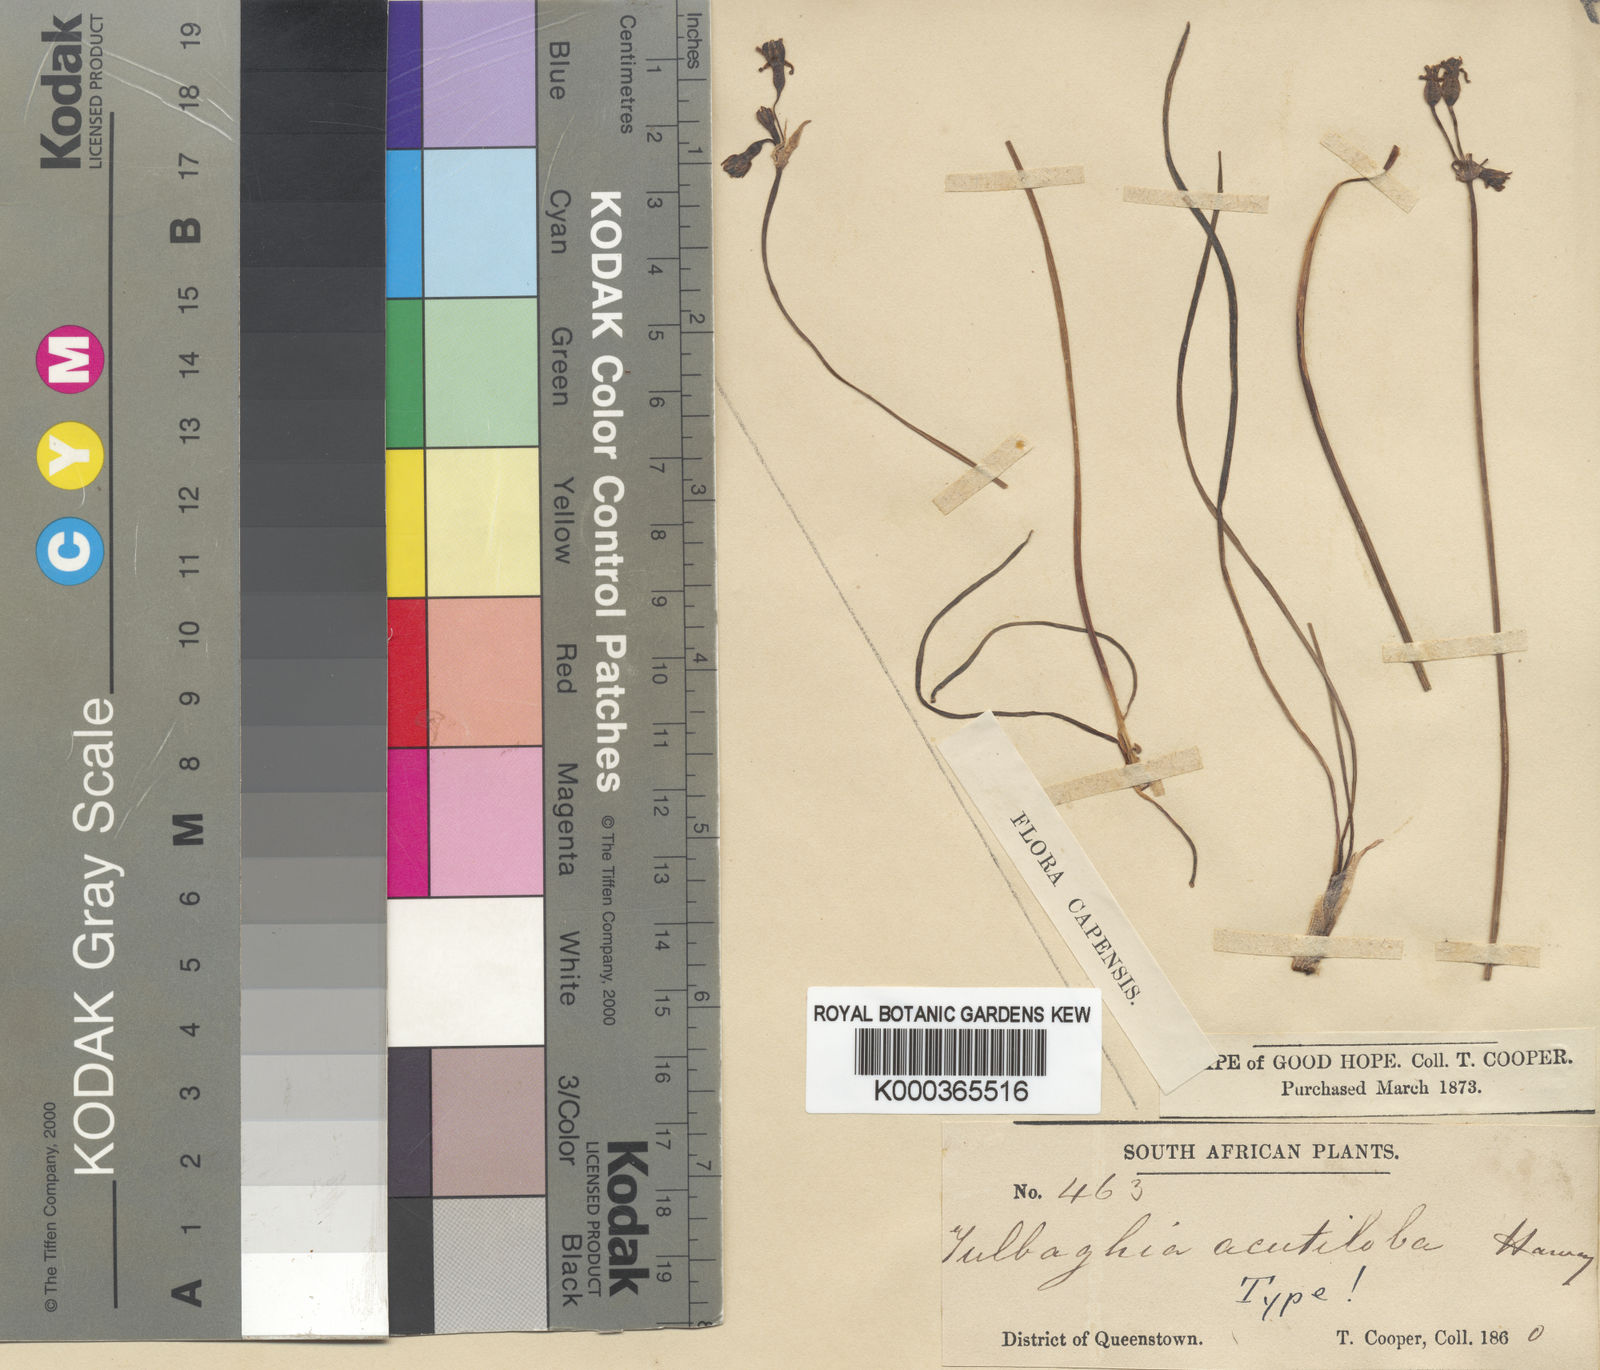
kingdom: Plantae
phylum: Tracheophyta
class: Liliopsida
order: Asparagales
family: Amaryllidaceae
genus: Tulbaghia
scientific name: Tulbaghia acutiloba
